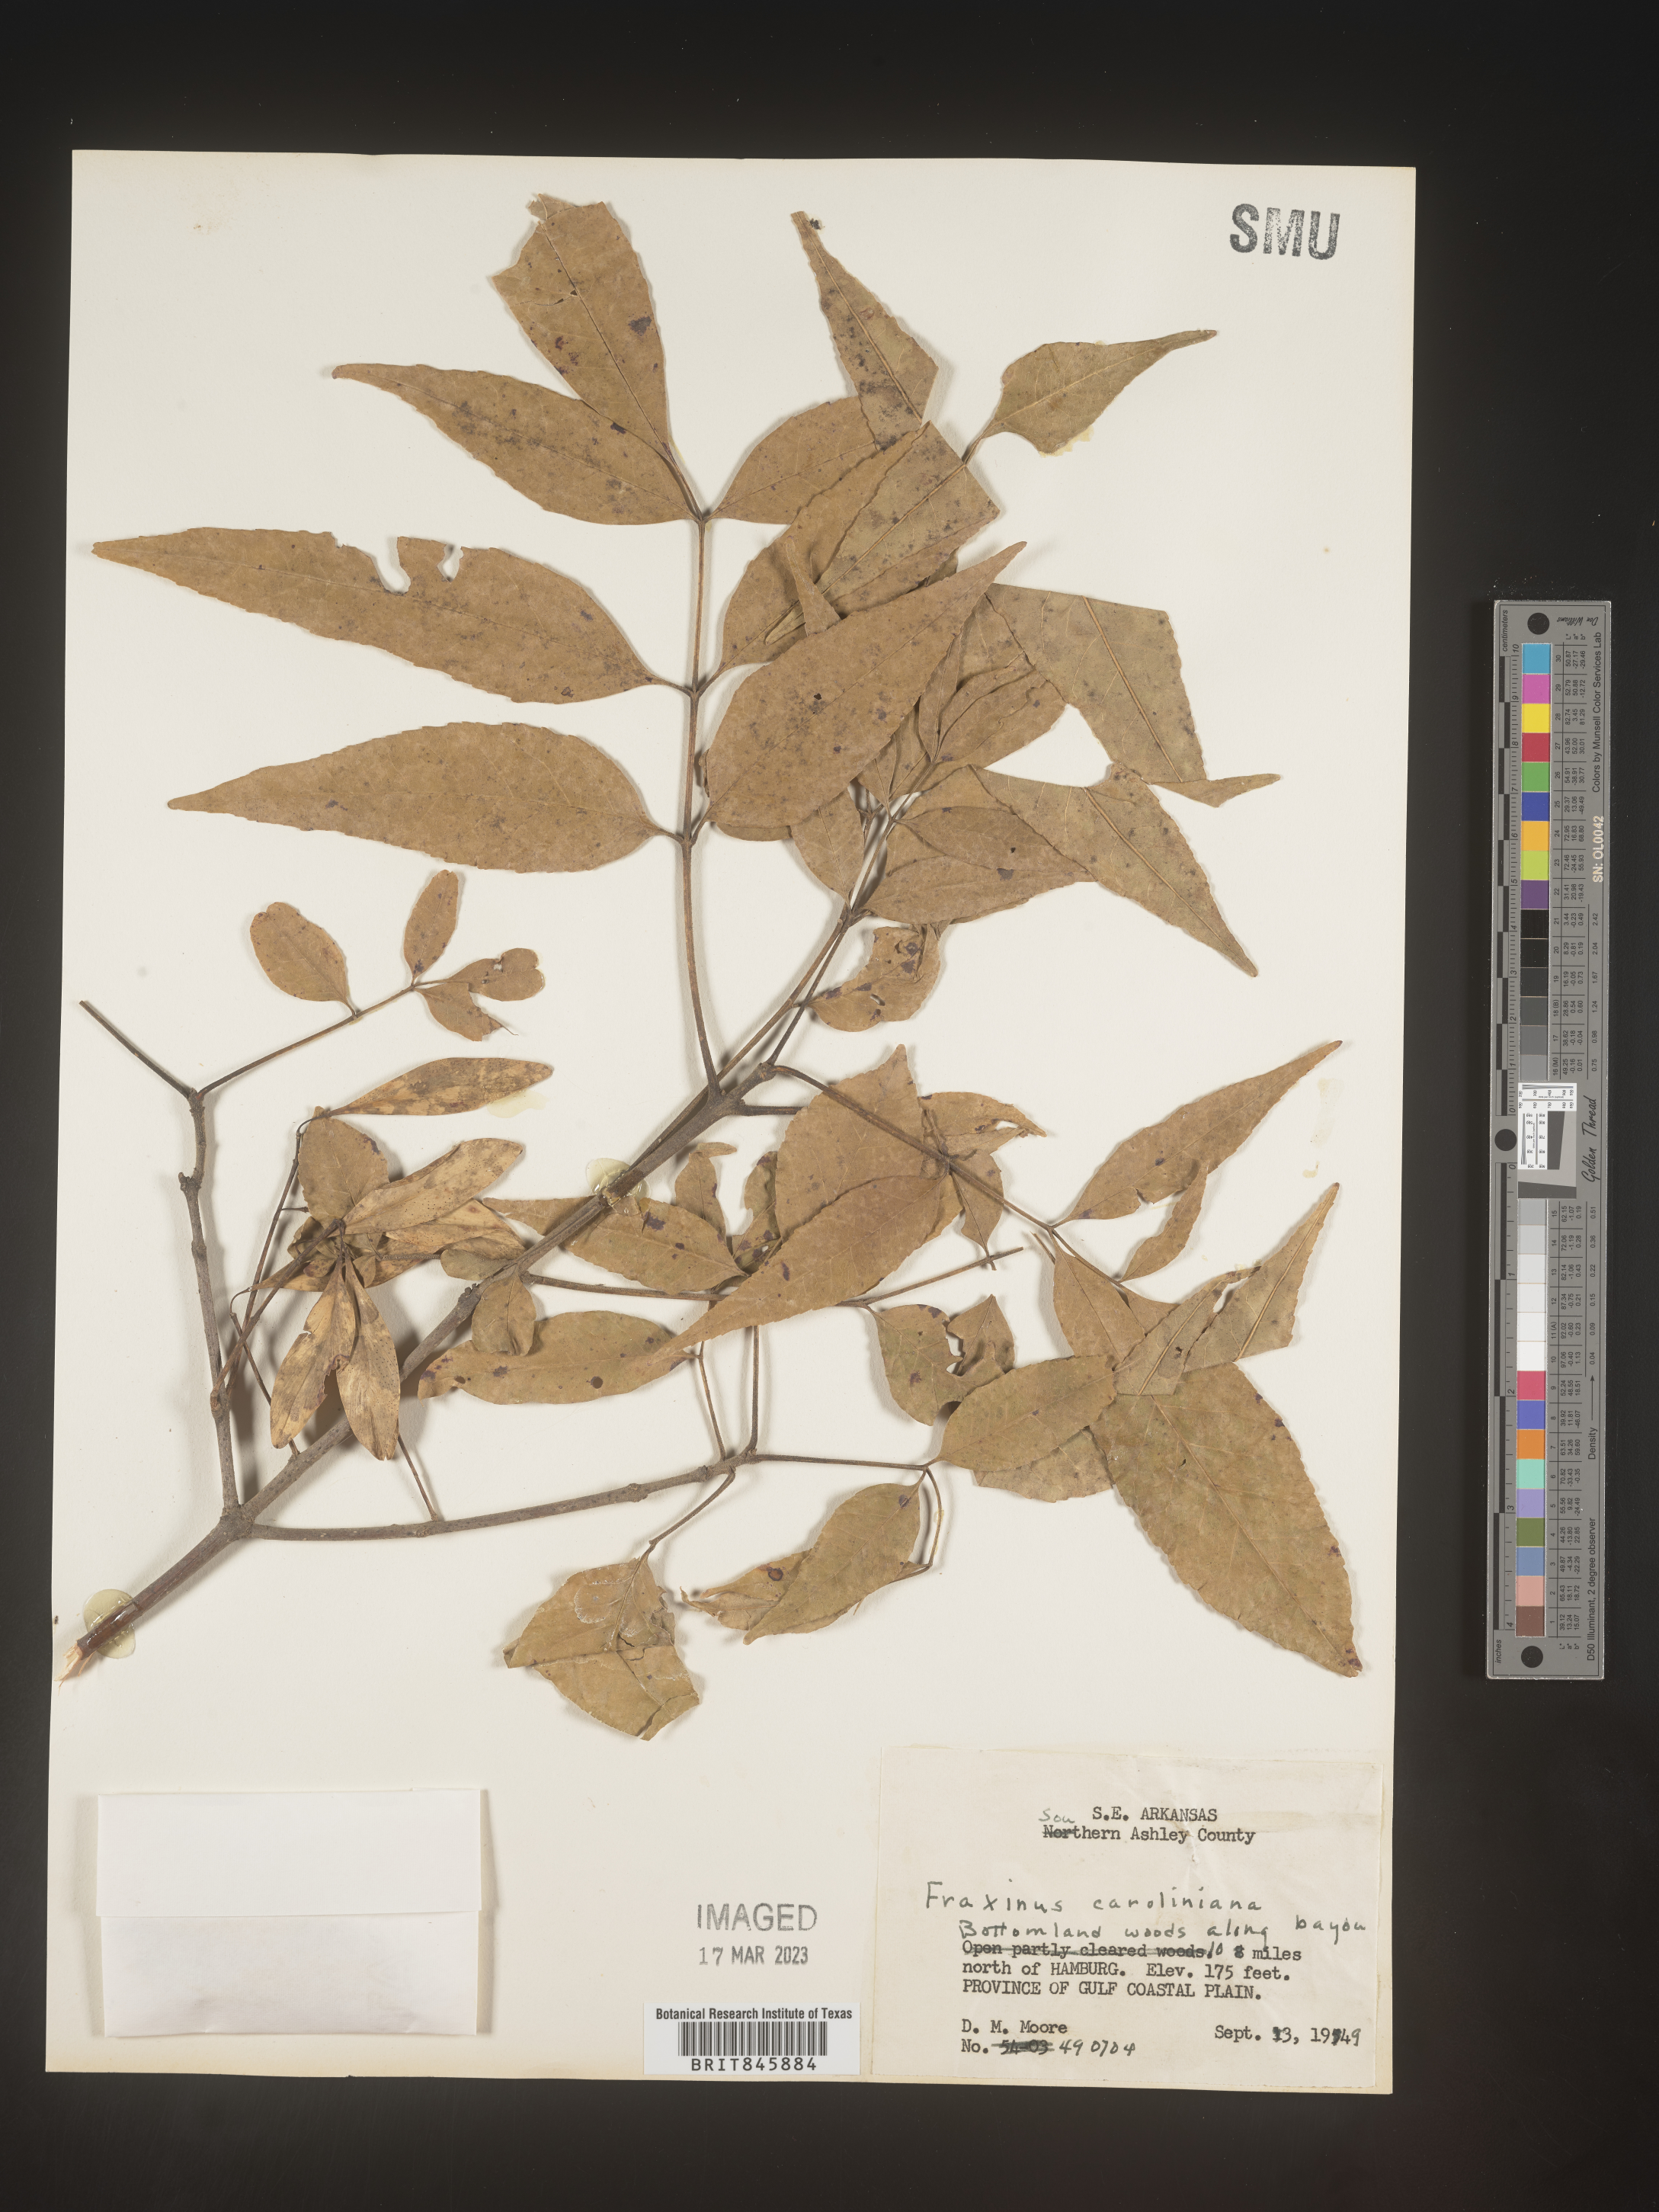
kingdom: Plantae
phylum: Tracheophyta
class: Magnoliopsida
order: Lamiales
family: Oleaceae
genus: Fraxinus
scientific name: Fraxinus caroliniana
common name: Carolina ash
